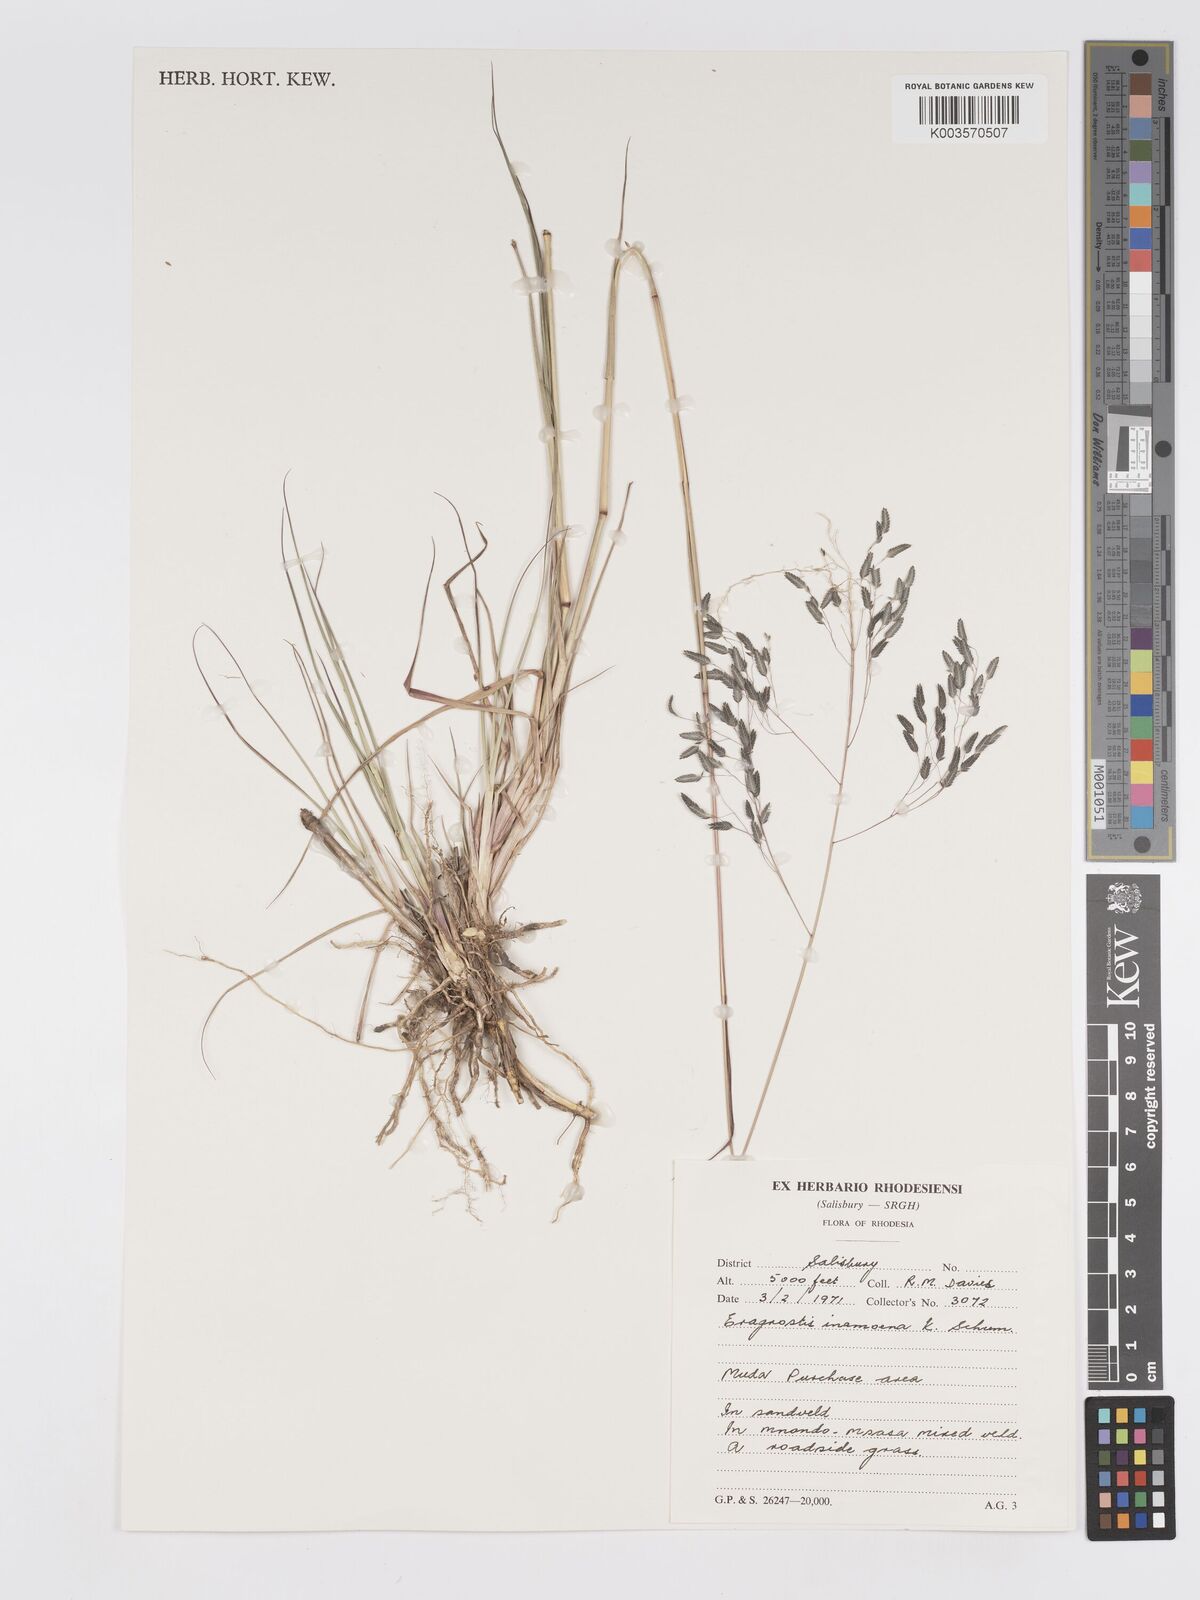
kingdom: Plantae
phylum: Tracheophyta
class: Liliopsida
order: Poales
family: Poaceae
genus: Eragrostis
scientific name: Eragrostis inamoena
